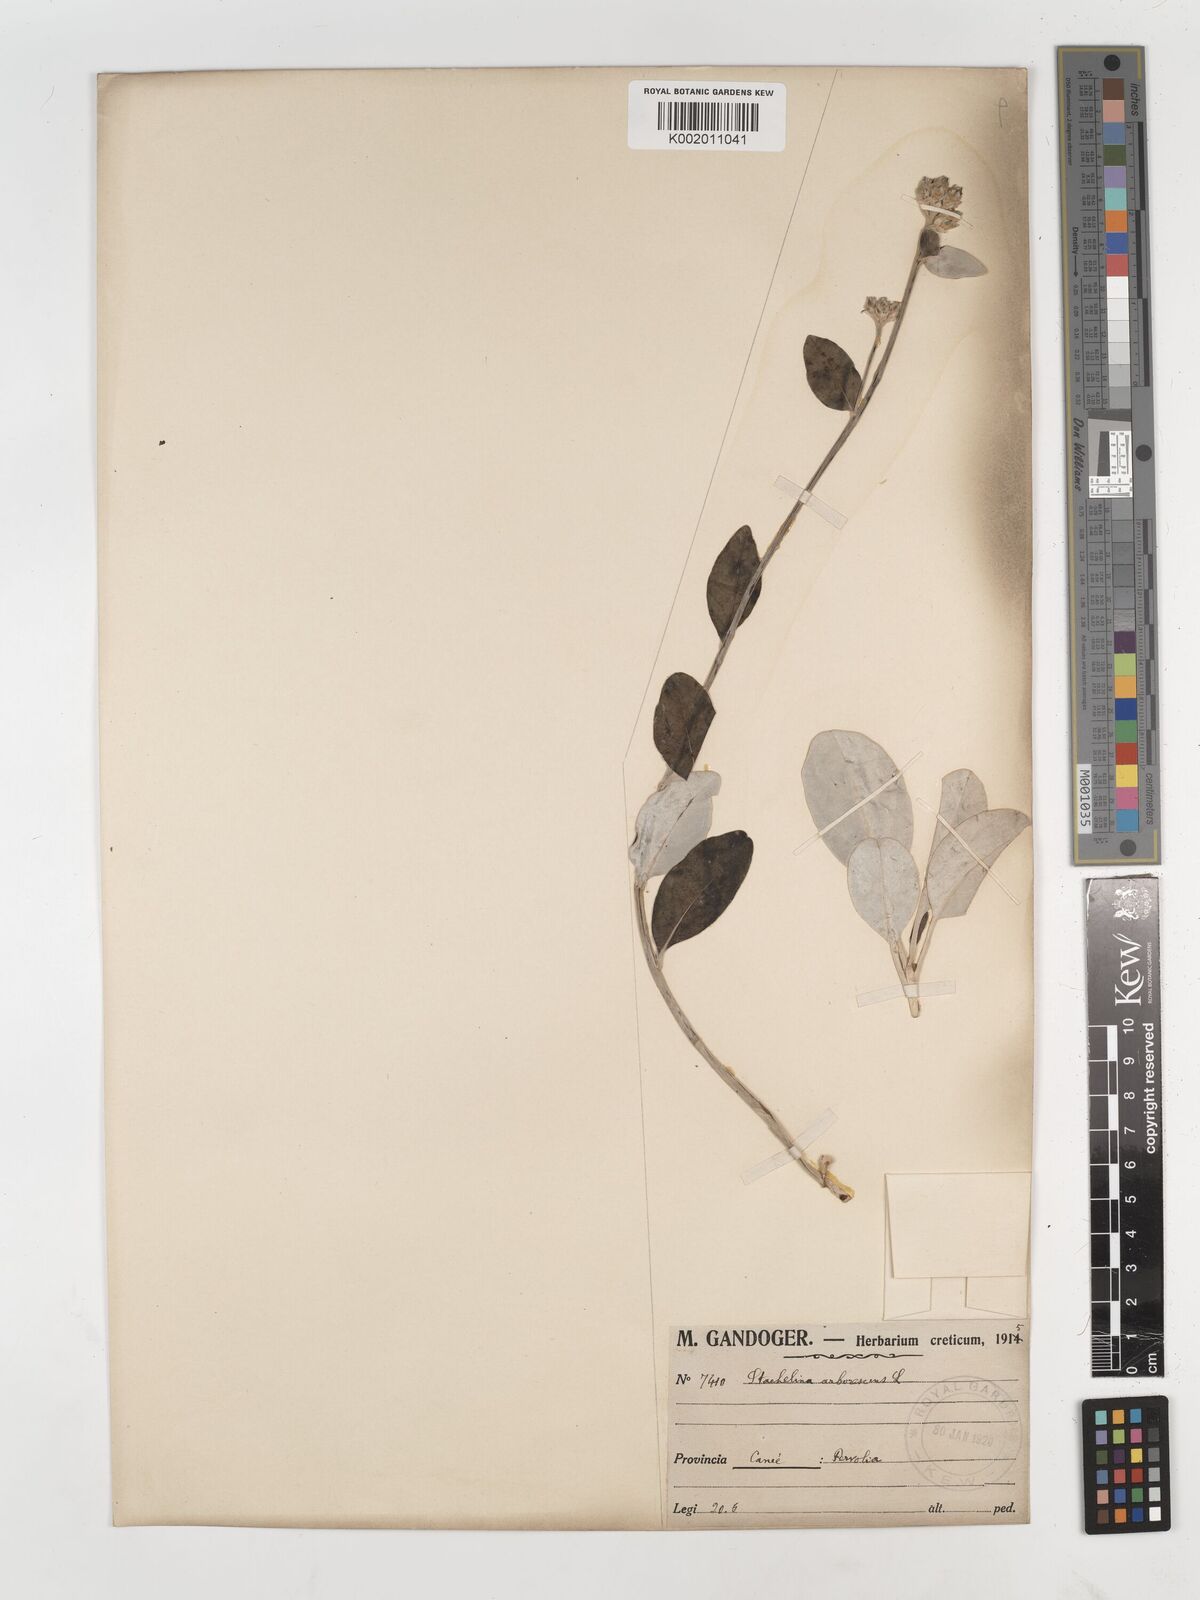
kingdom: Plantae
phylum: Tracheophyta
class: Magnoliopsida
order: Asterales
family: Asteraceae
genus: Staehelina
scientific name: Staehelina petiolata
